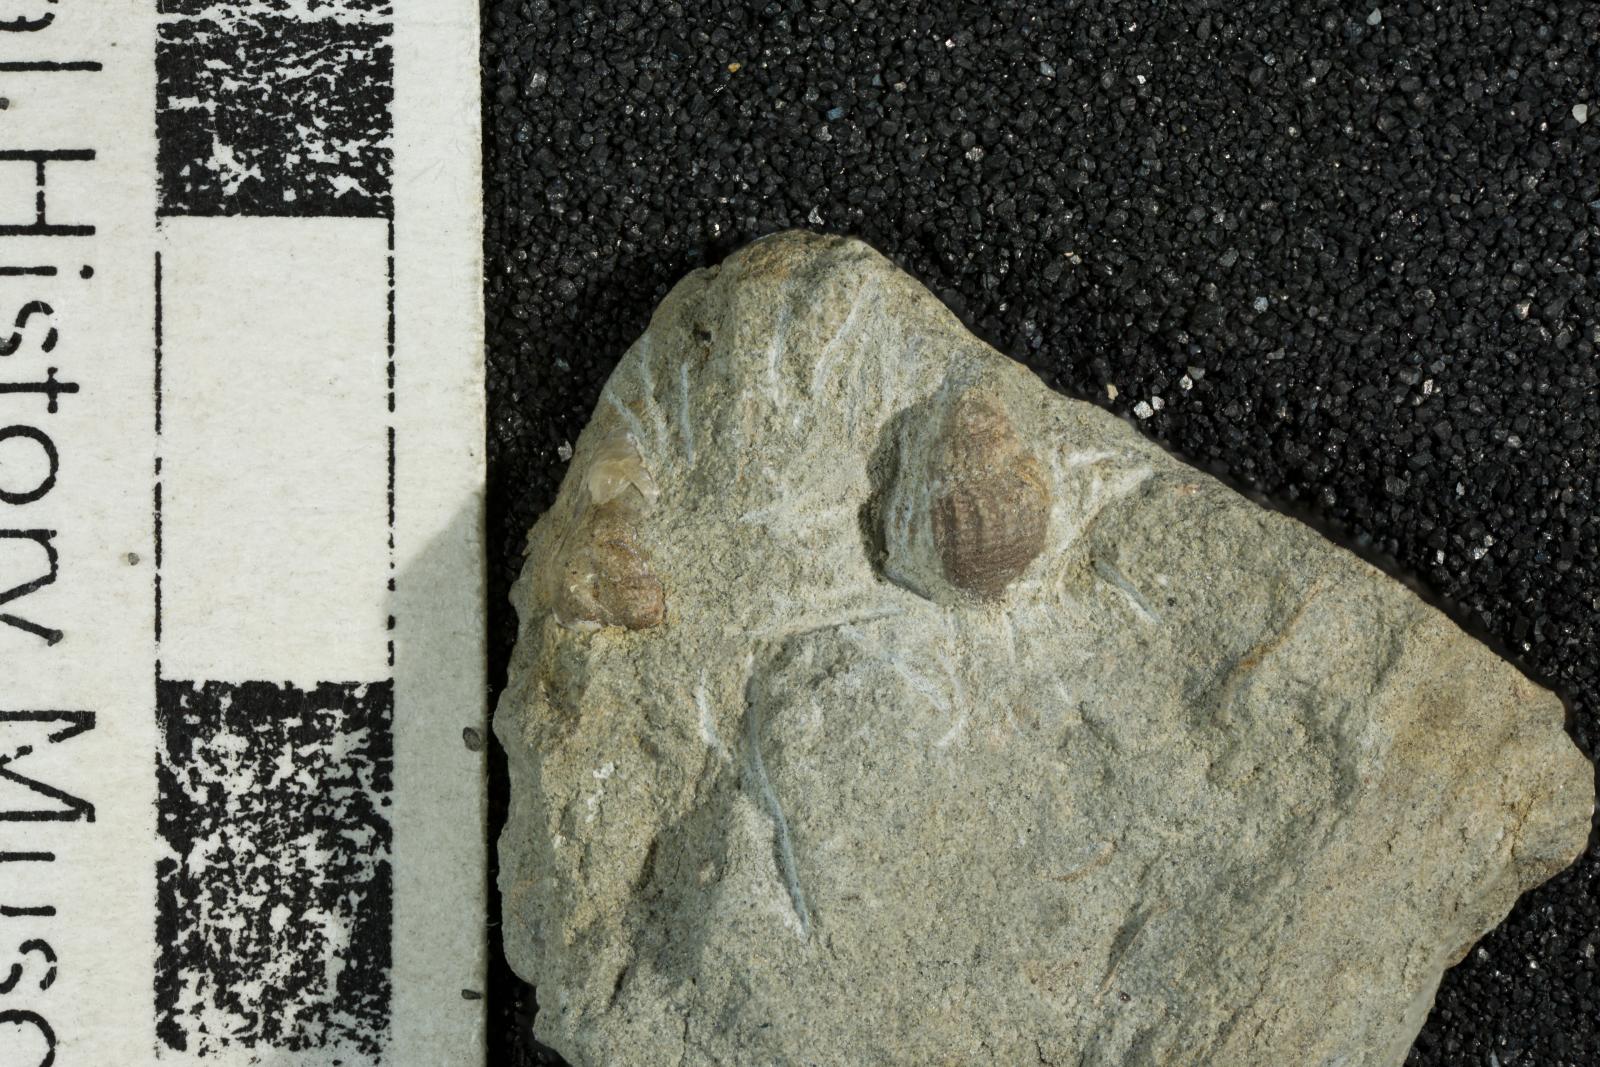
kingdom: Animalia
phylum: Mollusca
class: Gastropoda
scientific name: Gastropoda
